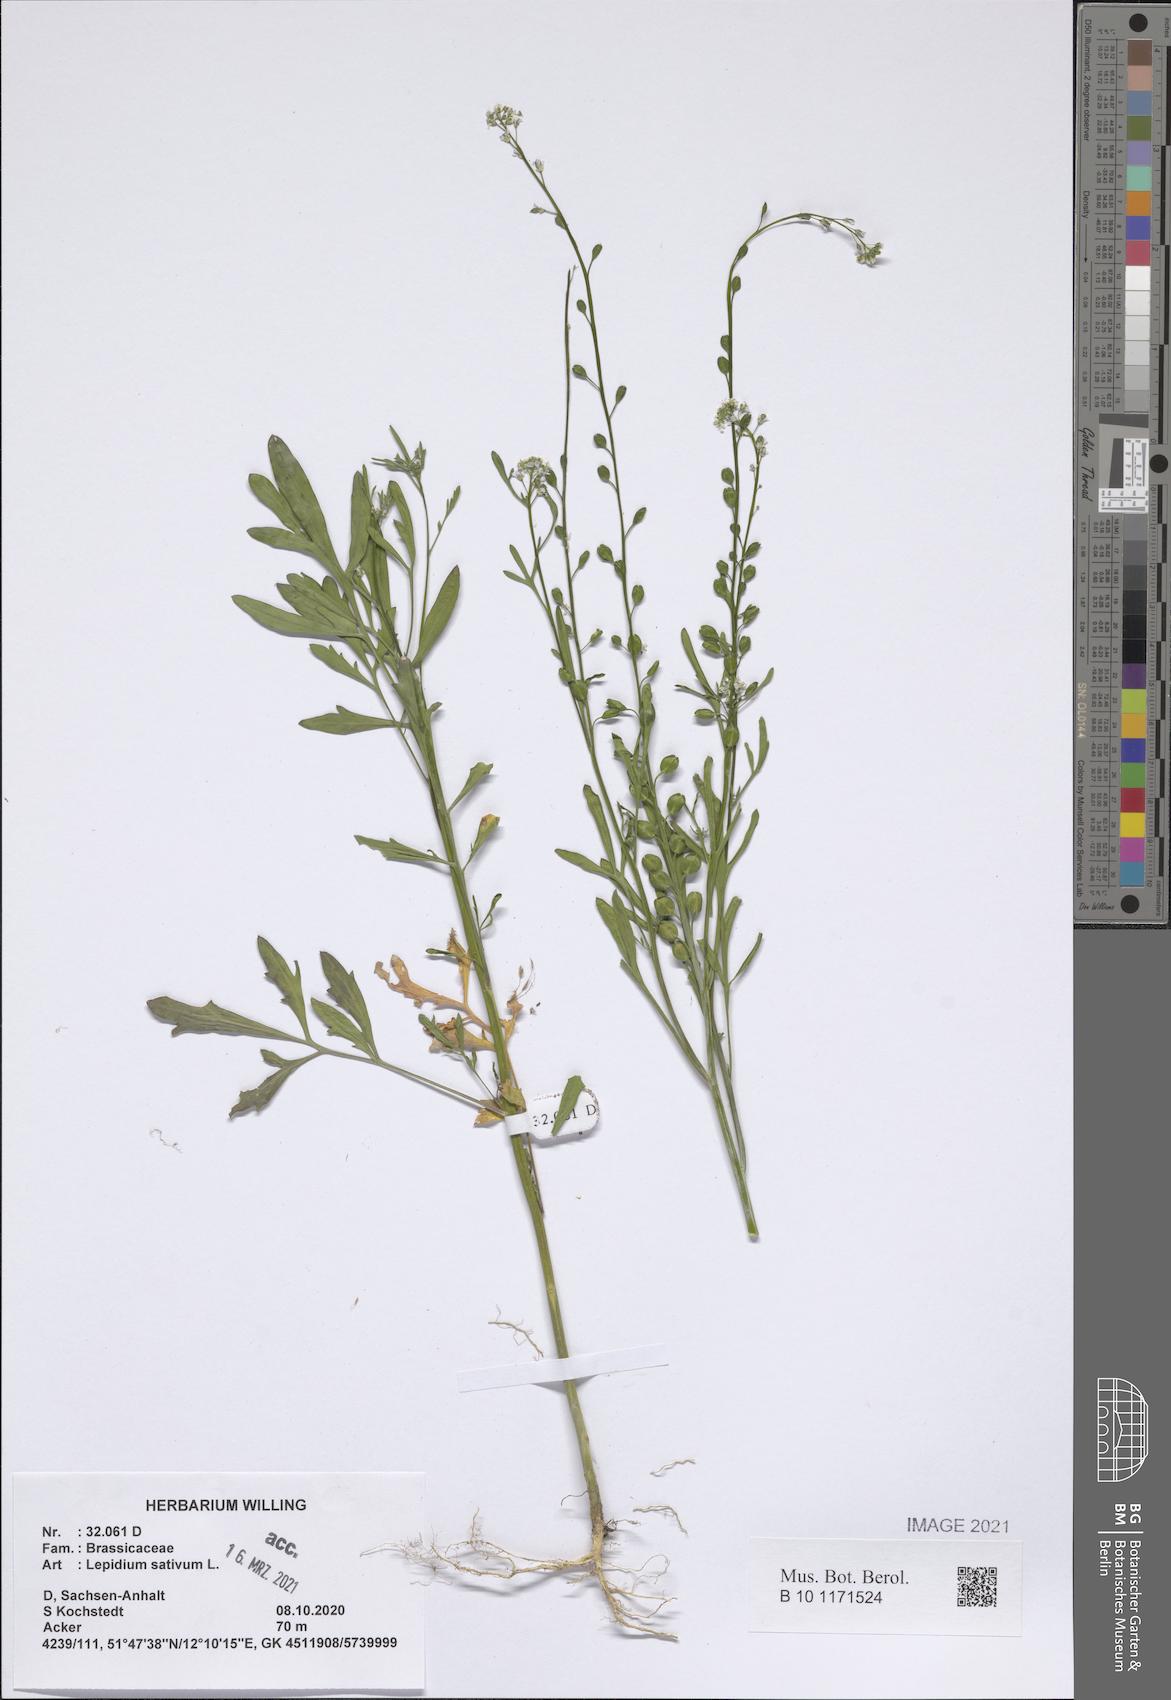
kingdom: Plantae
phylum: Tracheophyta
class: Magnoliopsida
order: Brassicales
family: Brassicaceae
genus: Lepidium
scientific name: Lepidium sativum
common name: Garden cress
